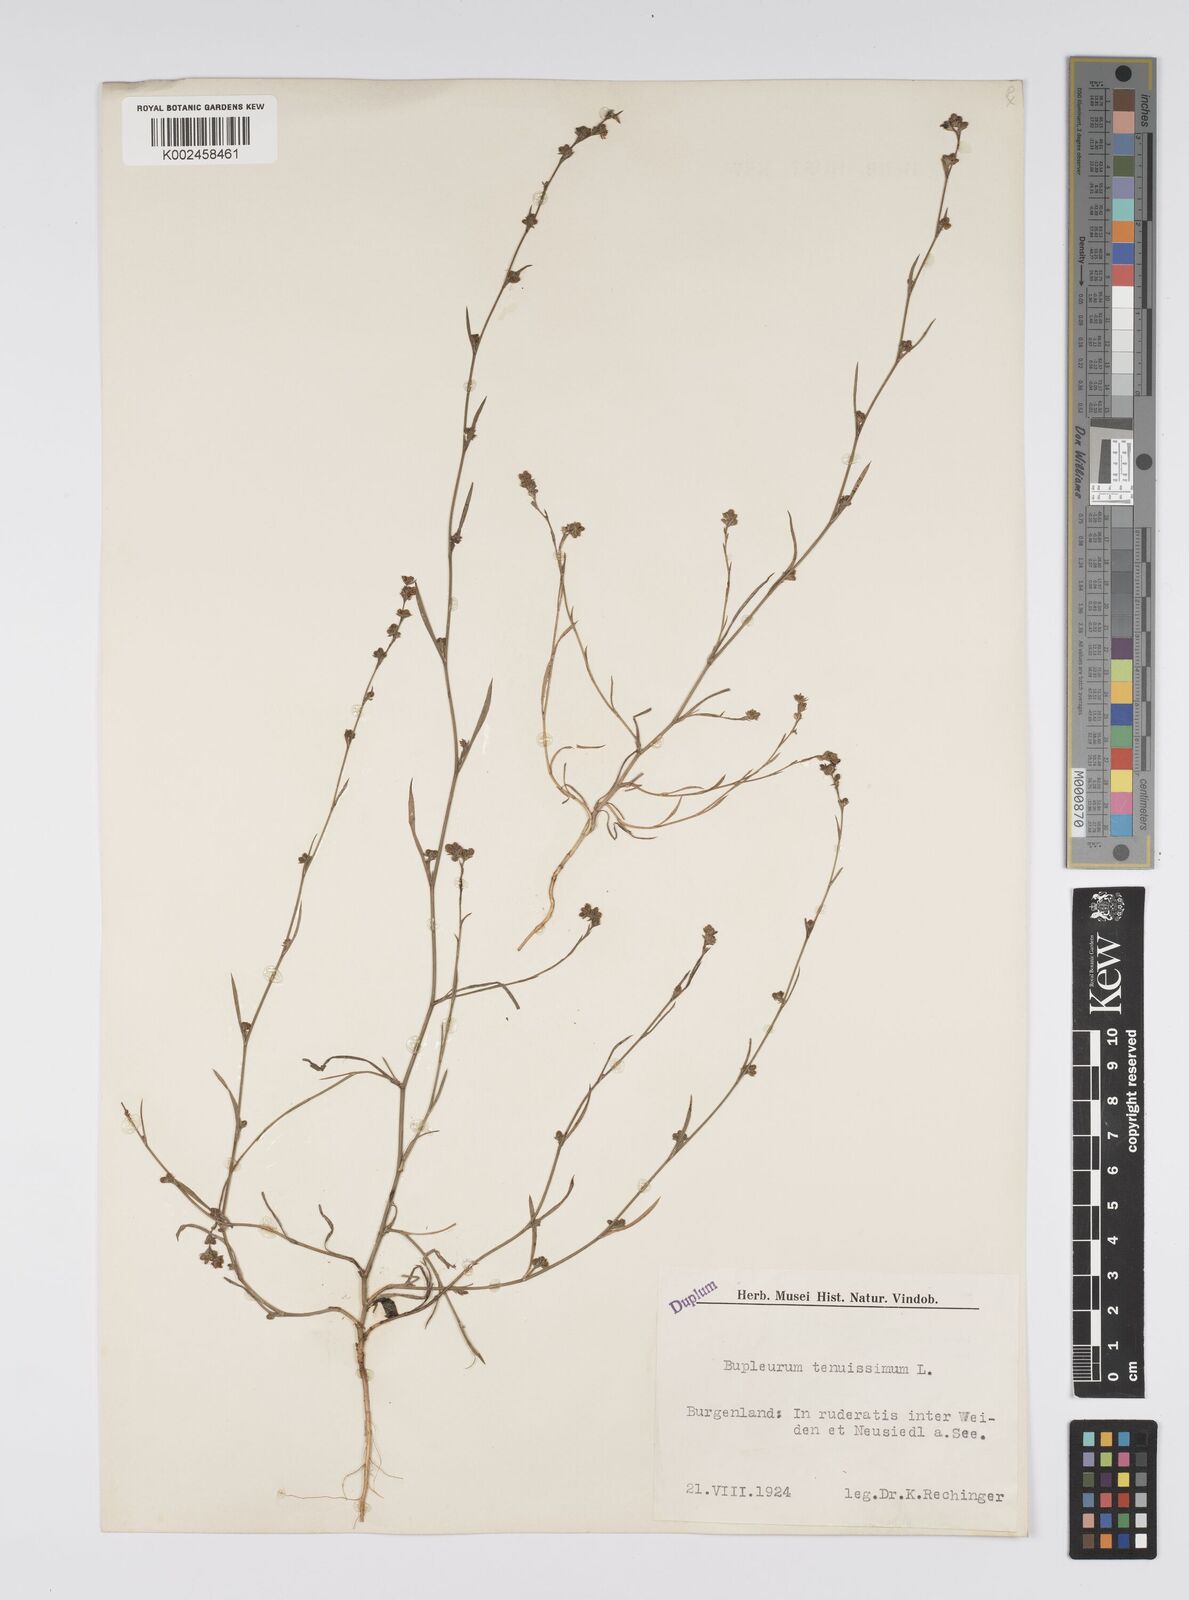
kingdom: Plantae
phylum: Tracheophyta
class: Magnoliopsida
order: Apiales
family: Apiaceae
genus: Bupleurum
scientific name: Bupleurum tenuissimum
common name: Slender hare's-ear
